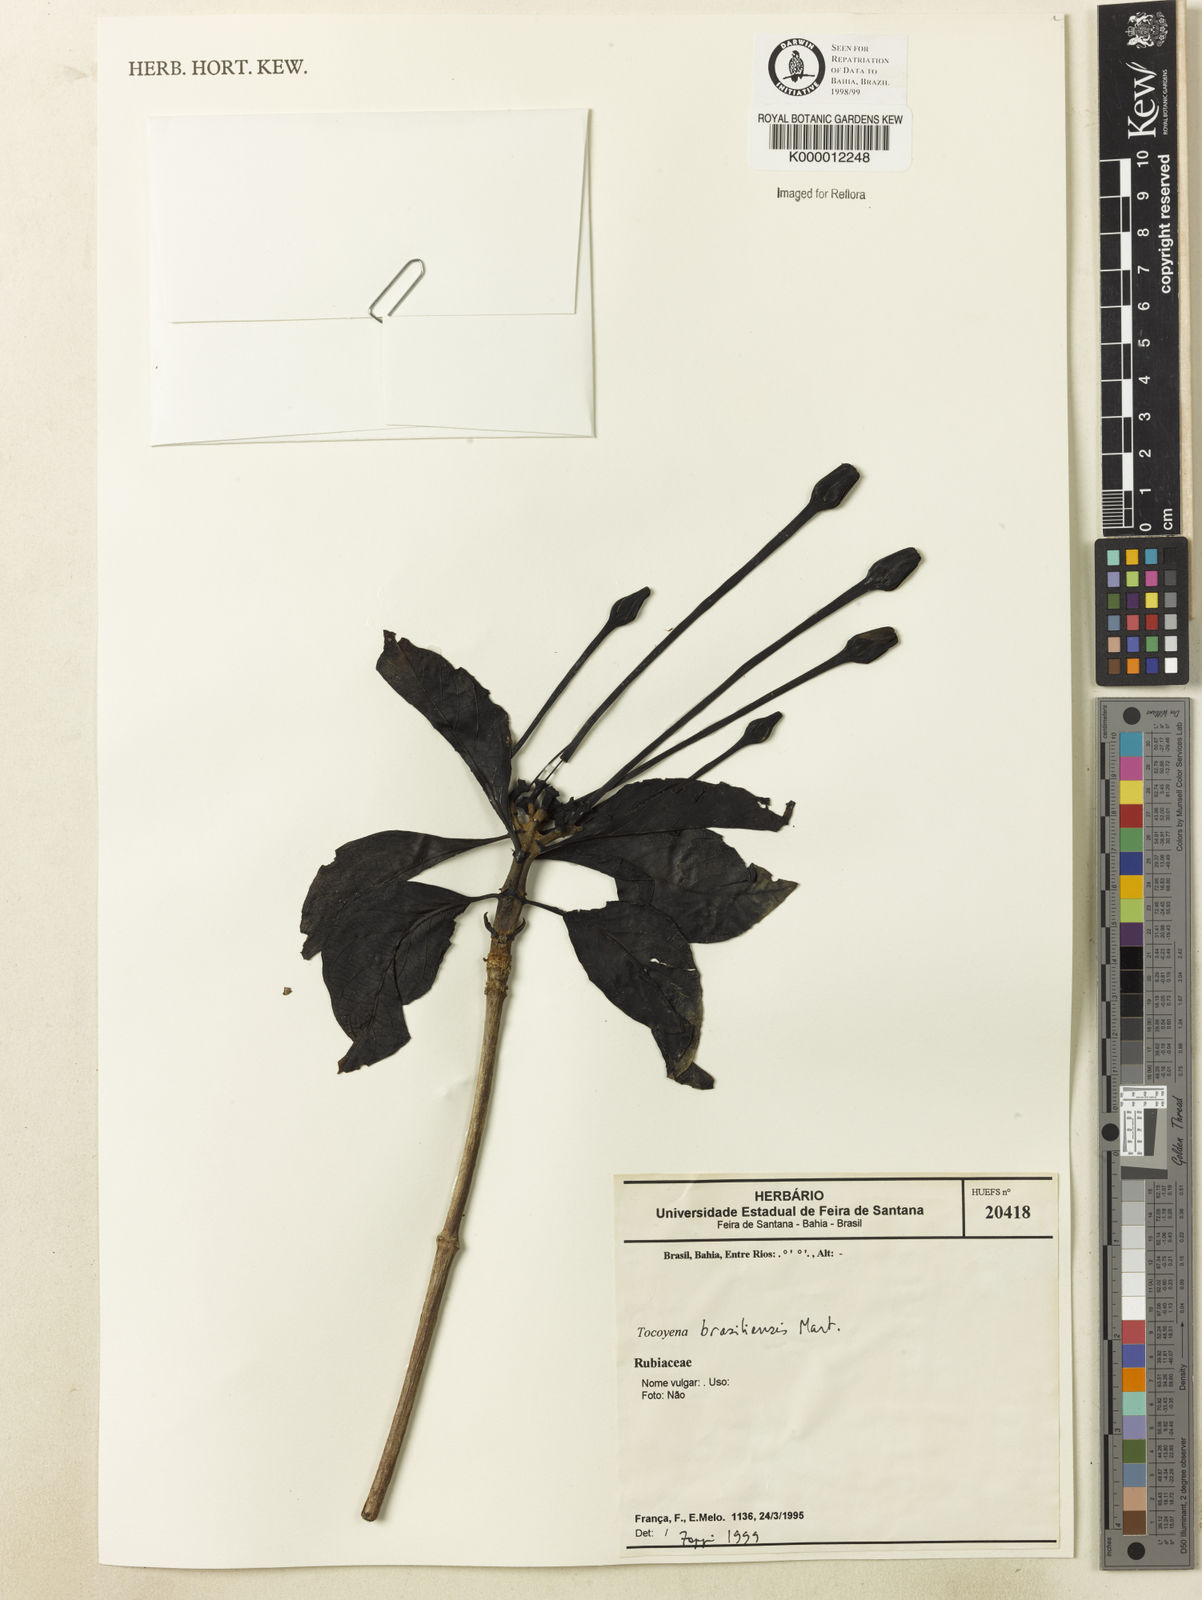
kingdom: Plantae
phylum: Tracheophyta
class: Magnoliopsida
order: Gentianales
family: Rubiaceae
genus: Tocoyena
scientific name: Tocoyena sprucei
